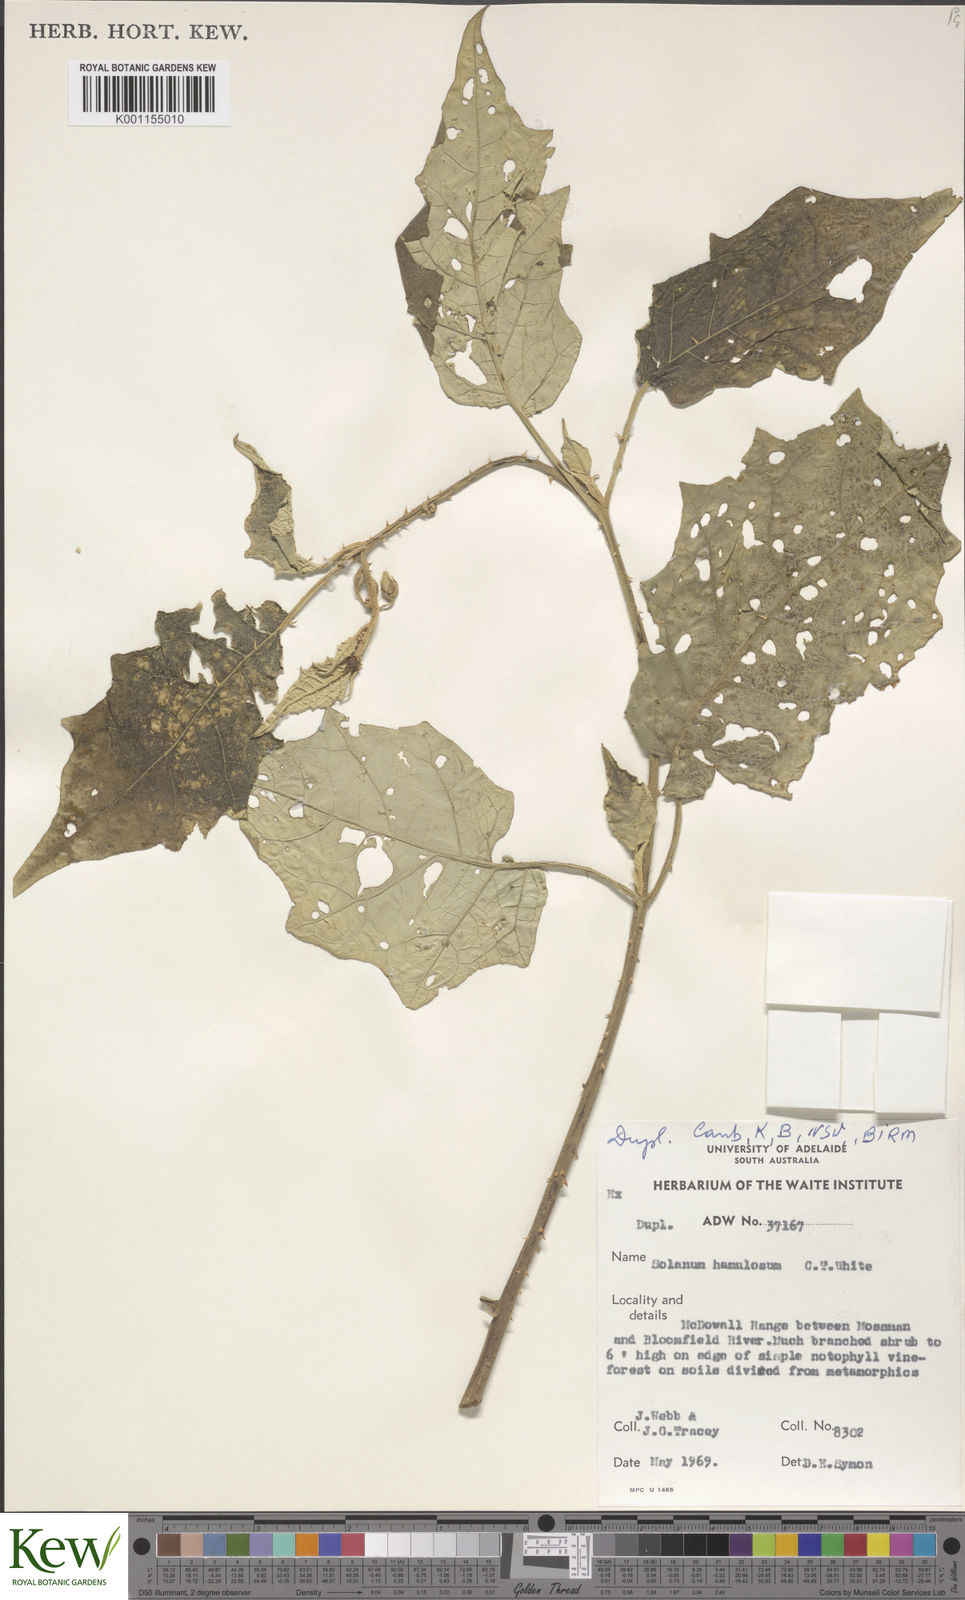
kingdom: Plantae
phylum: Tracheophyta
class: Magnoliopsida
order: Solanales
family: Solanaceae
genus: Solanum
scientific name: Solanum hamulosum
